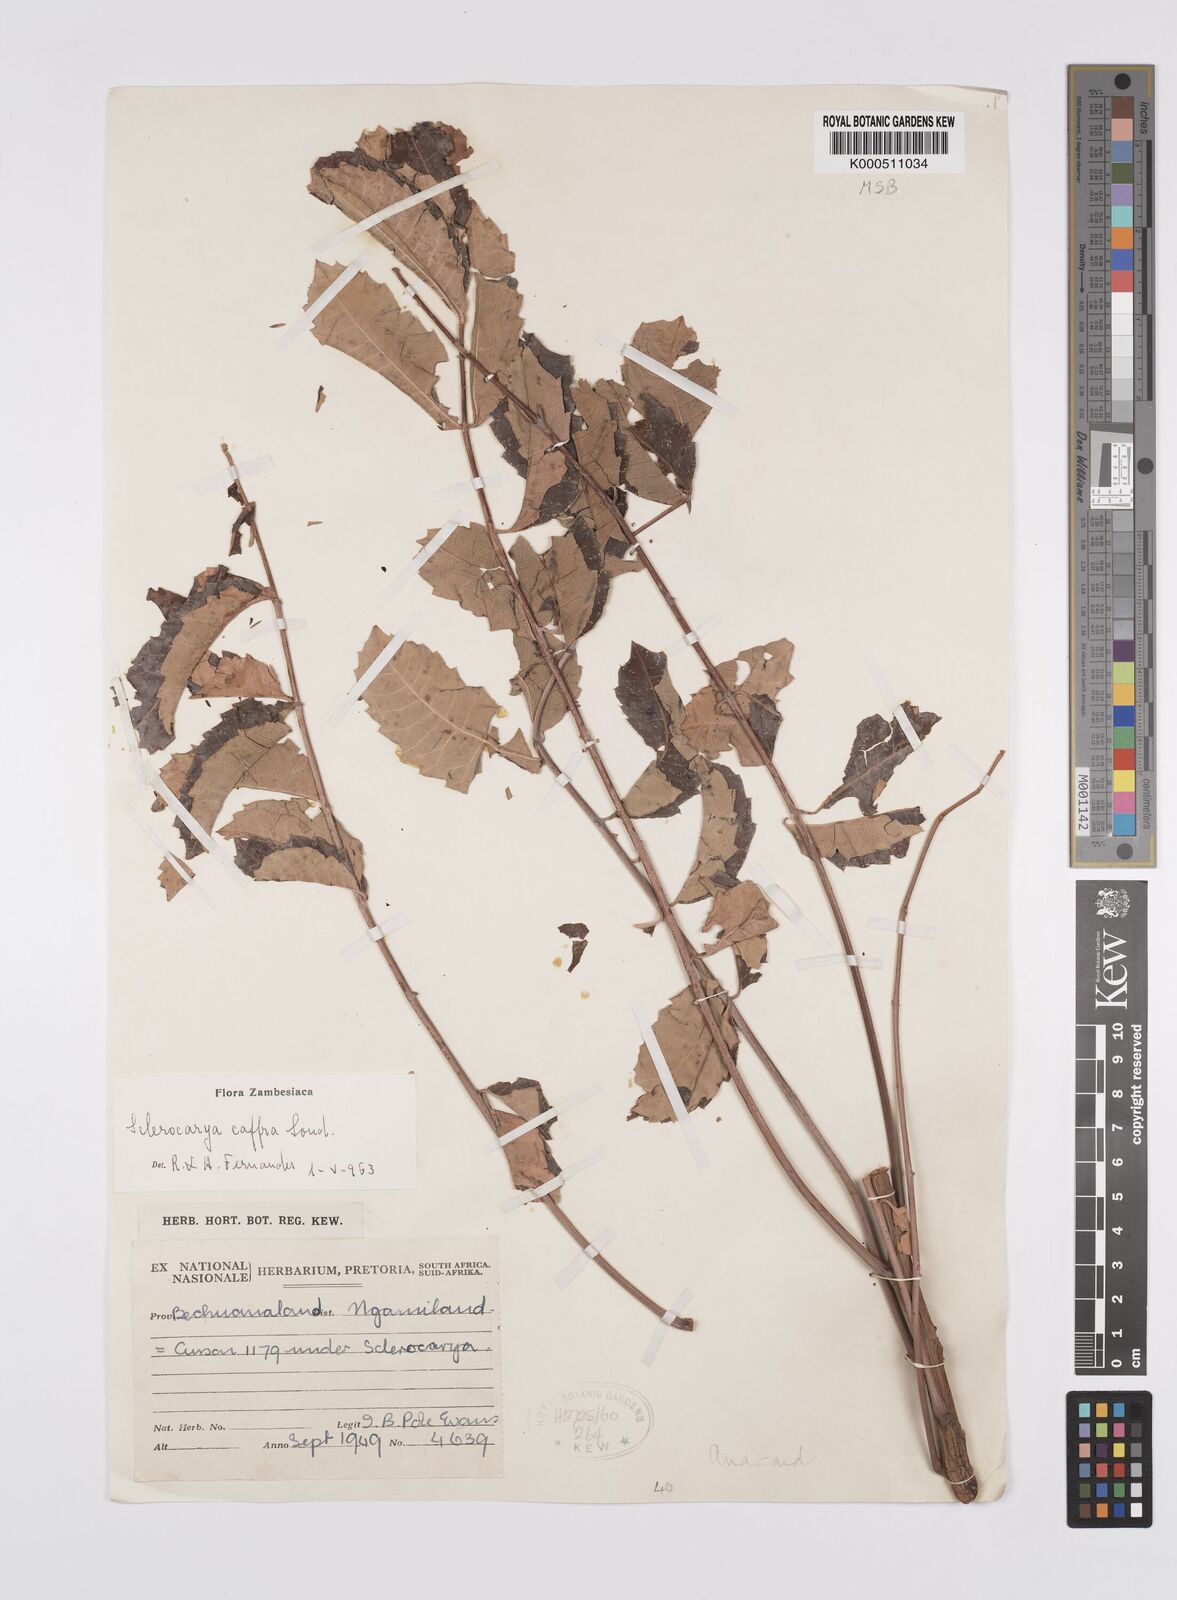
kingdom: Plantae
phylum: Tracheophyta
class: Magnoliopsida
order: Sapindales
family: Anacardiaceae
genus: Sclerocarya
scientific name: Sclerocarya birrea
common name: Marula
